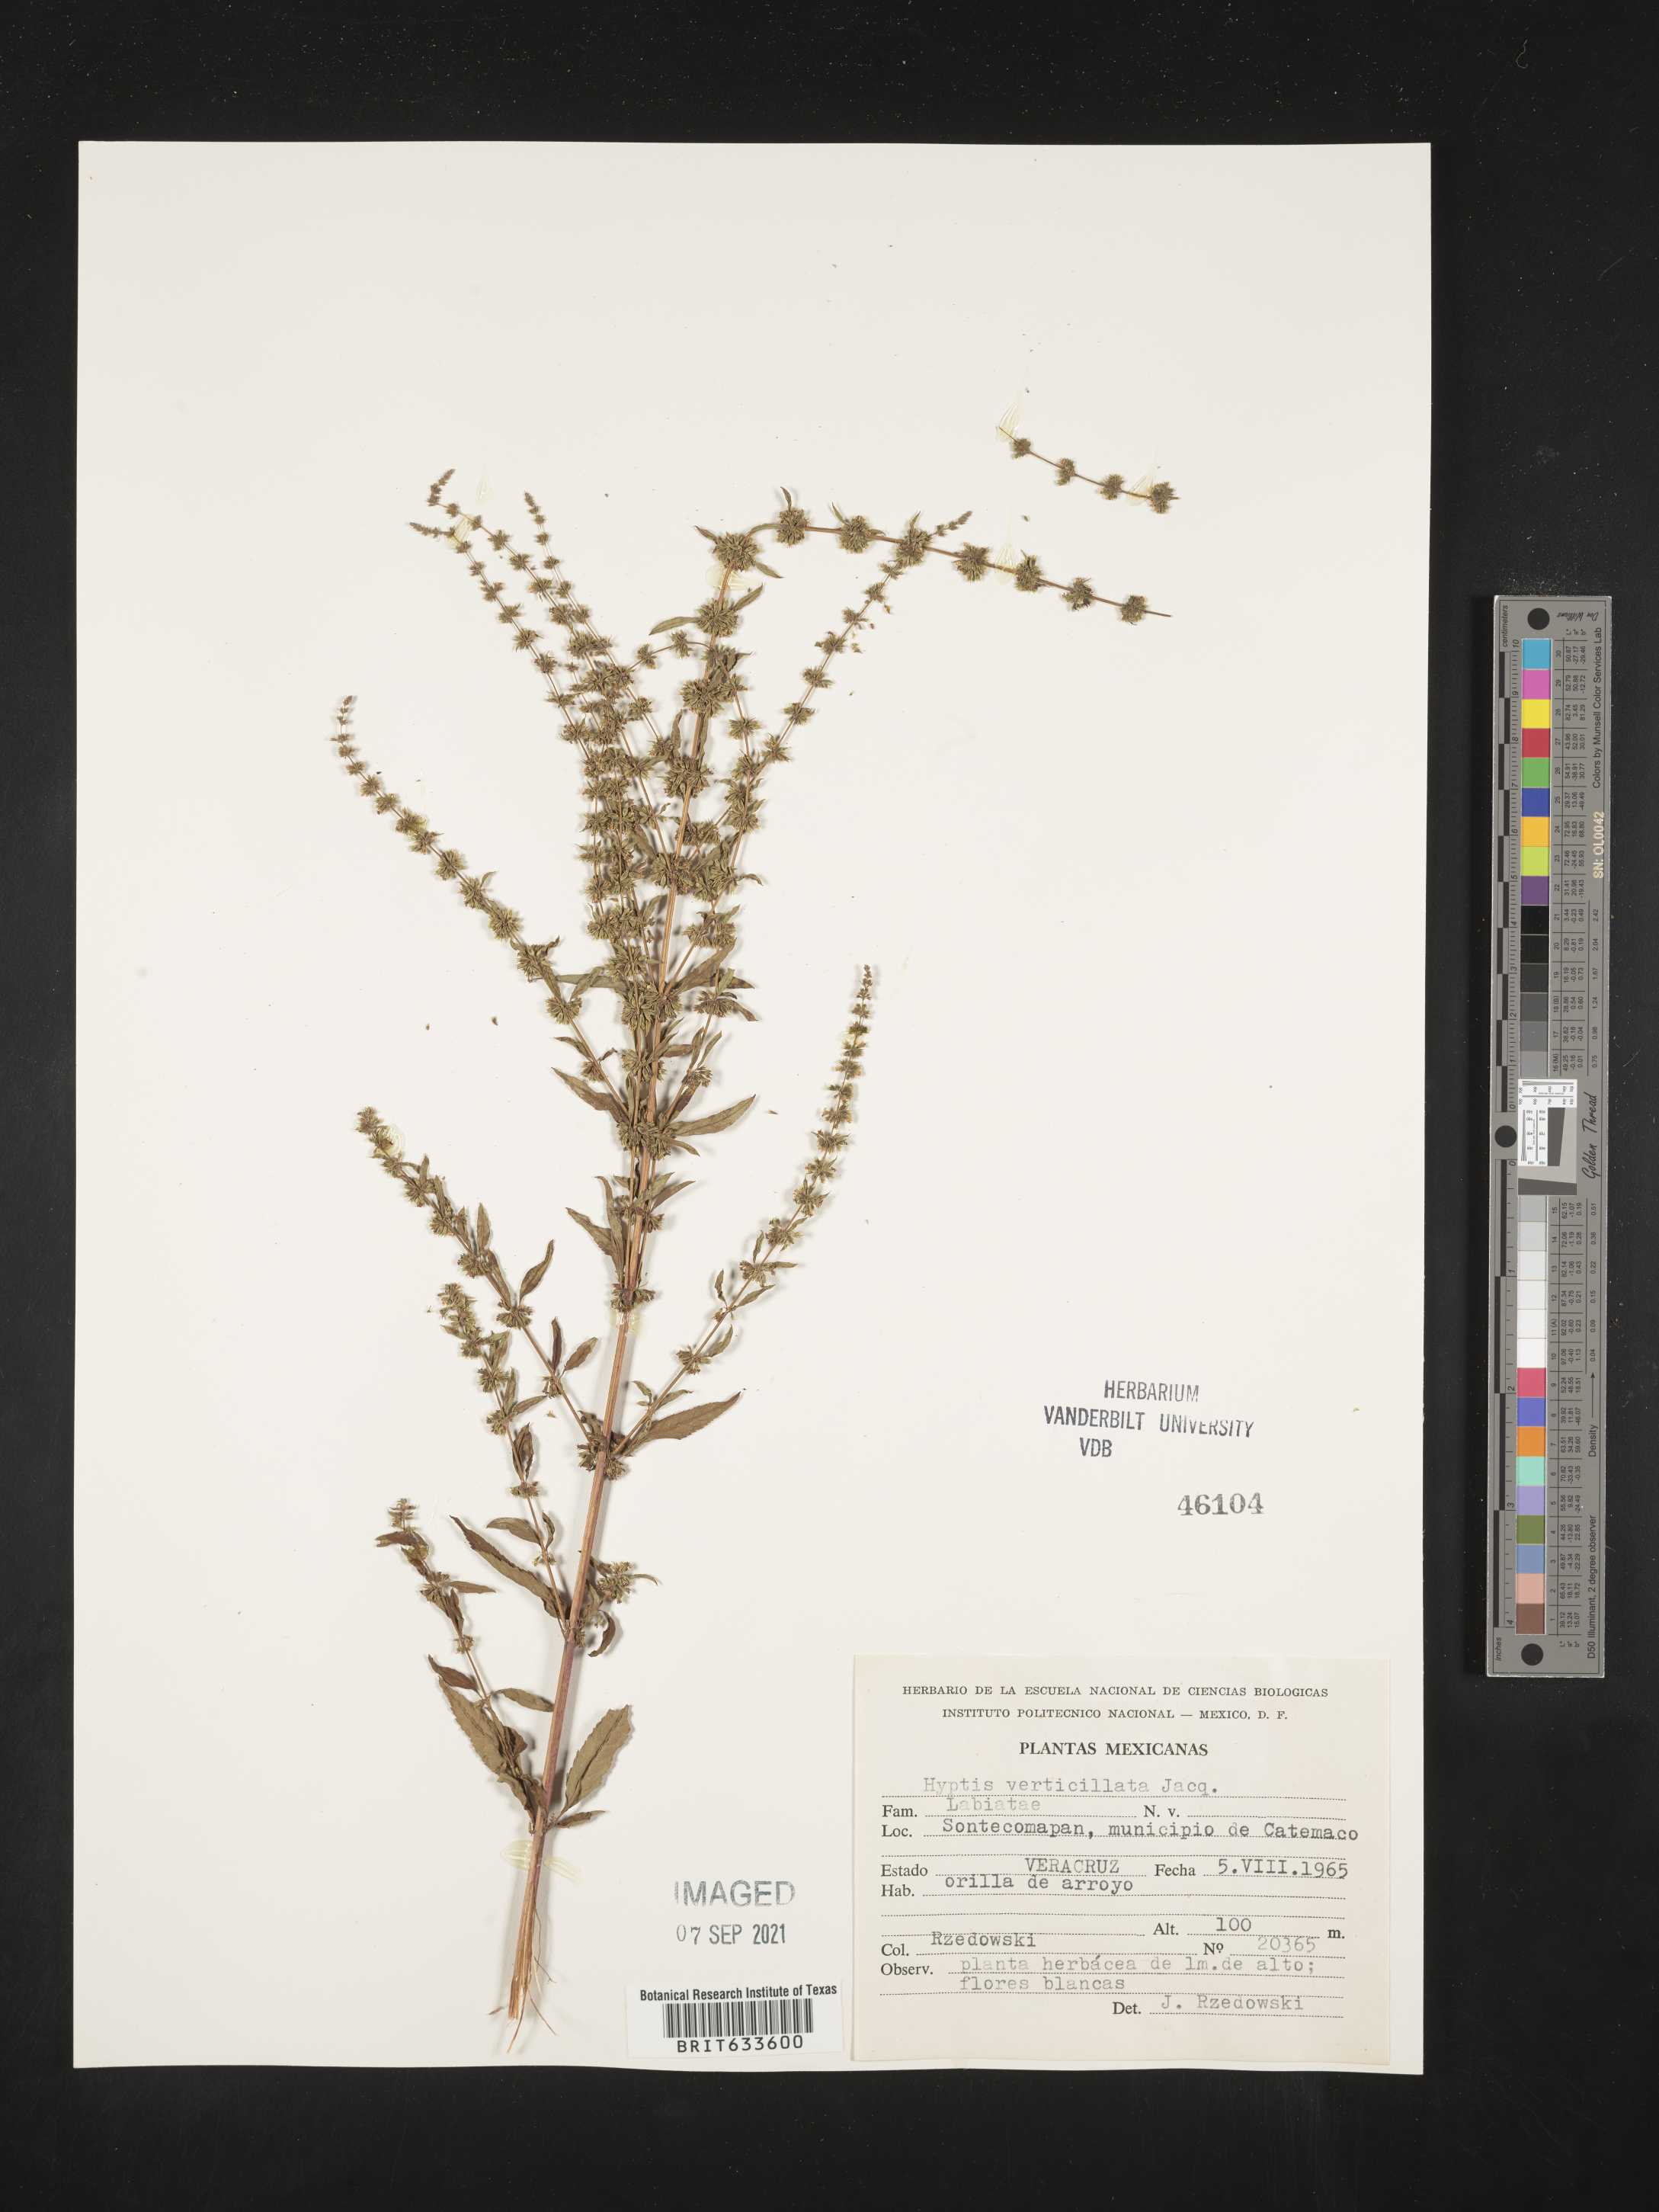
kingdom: Plantae
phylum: Tracheophyta
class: Magnoliopsida
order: Lamiales
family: Lamiaceae
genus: Hyptis
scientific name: Hyptis
